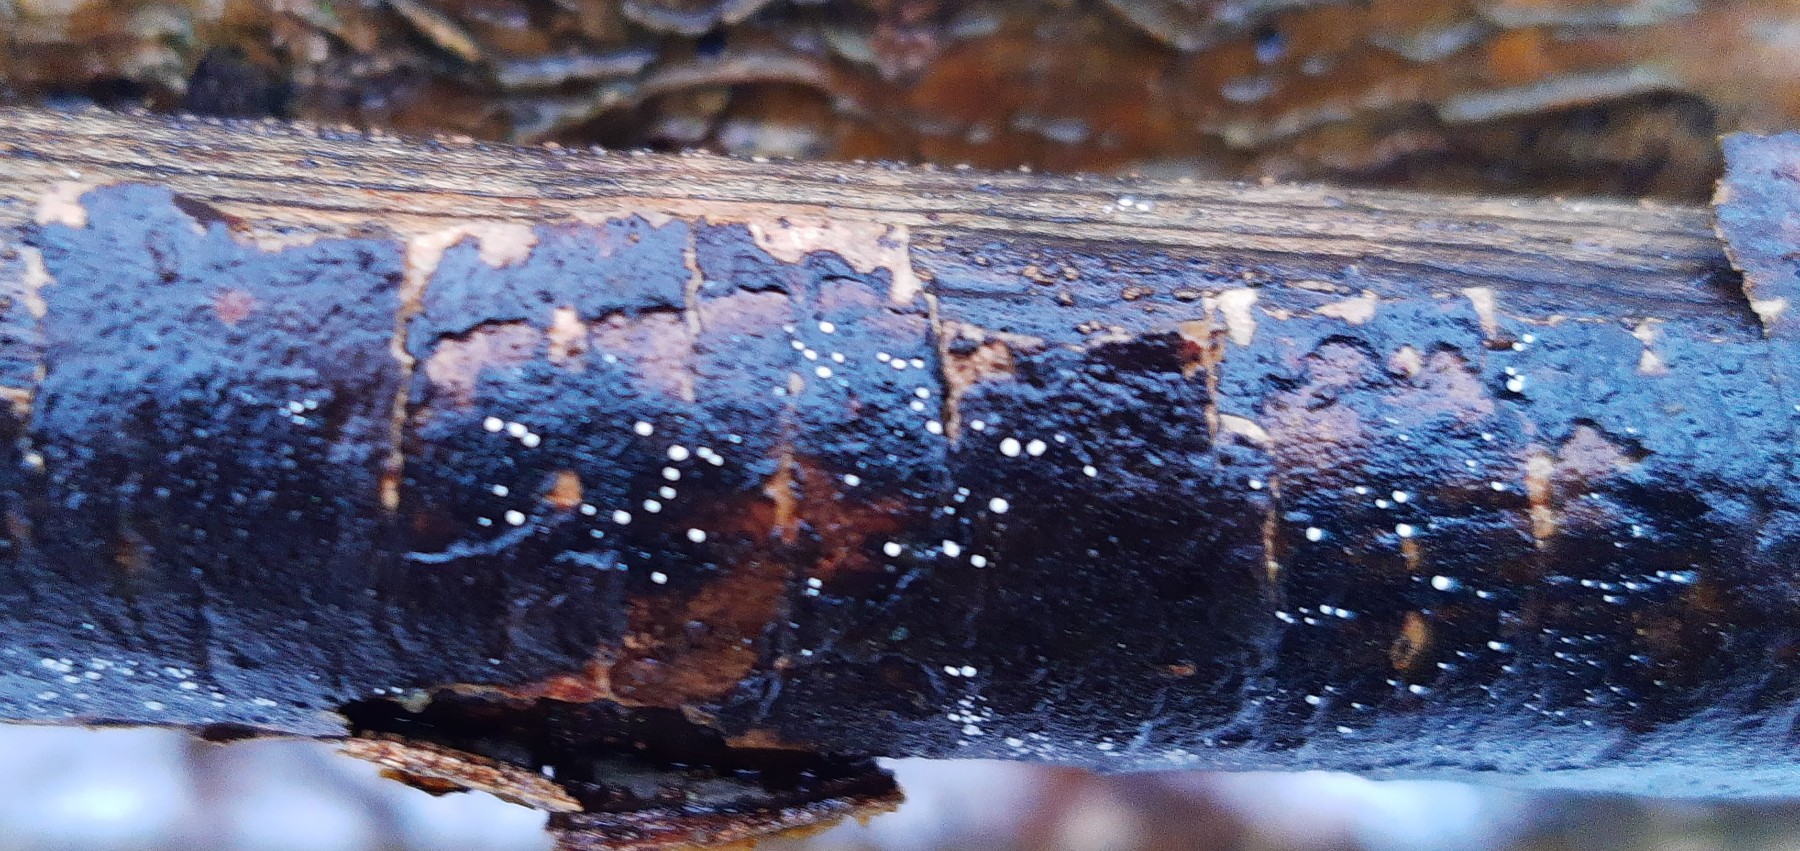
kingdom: Fungi
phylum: Ascomycota
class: Leotiomycetes
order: Helotiales
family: Hyaloscyphaceae
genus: Polydesmia
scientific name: Polydesmia pruinosa
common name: dunskive
